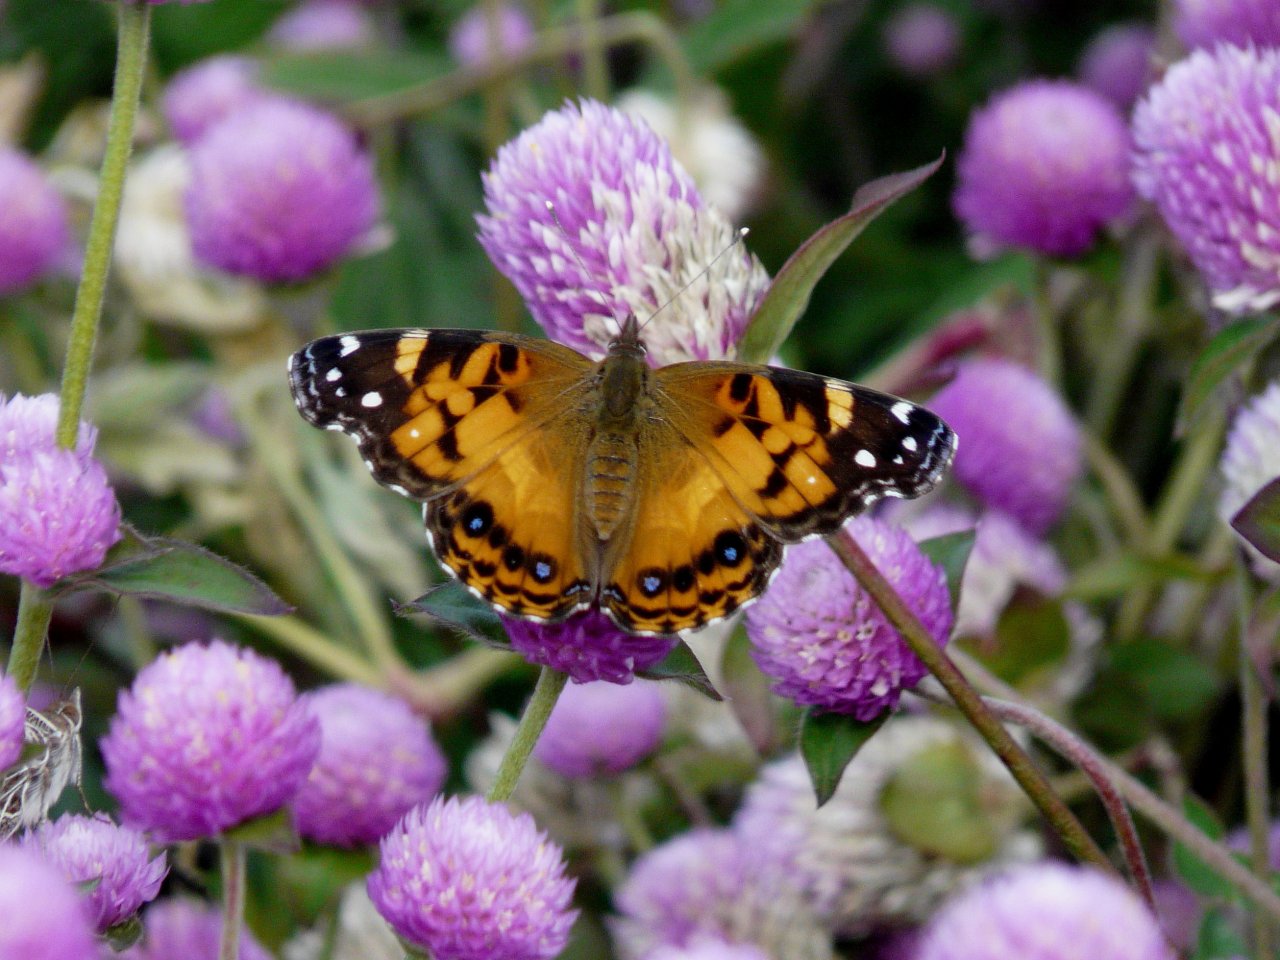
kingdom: Animalia
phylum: Arthropoda
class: Insecta
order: Lepidoptera
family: Nymphalidae
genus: Vanessa
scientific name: Vanessa virginiensis
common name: American Lady
